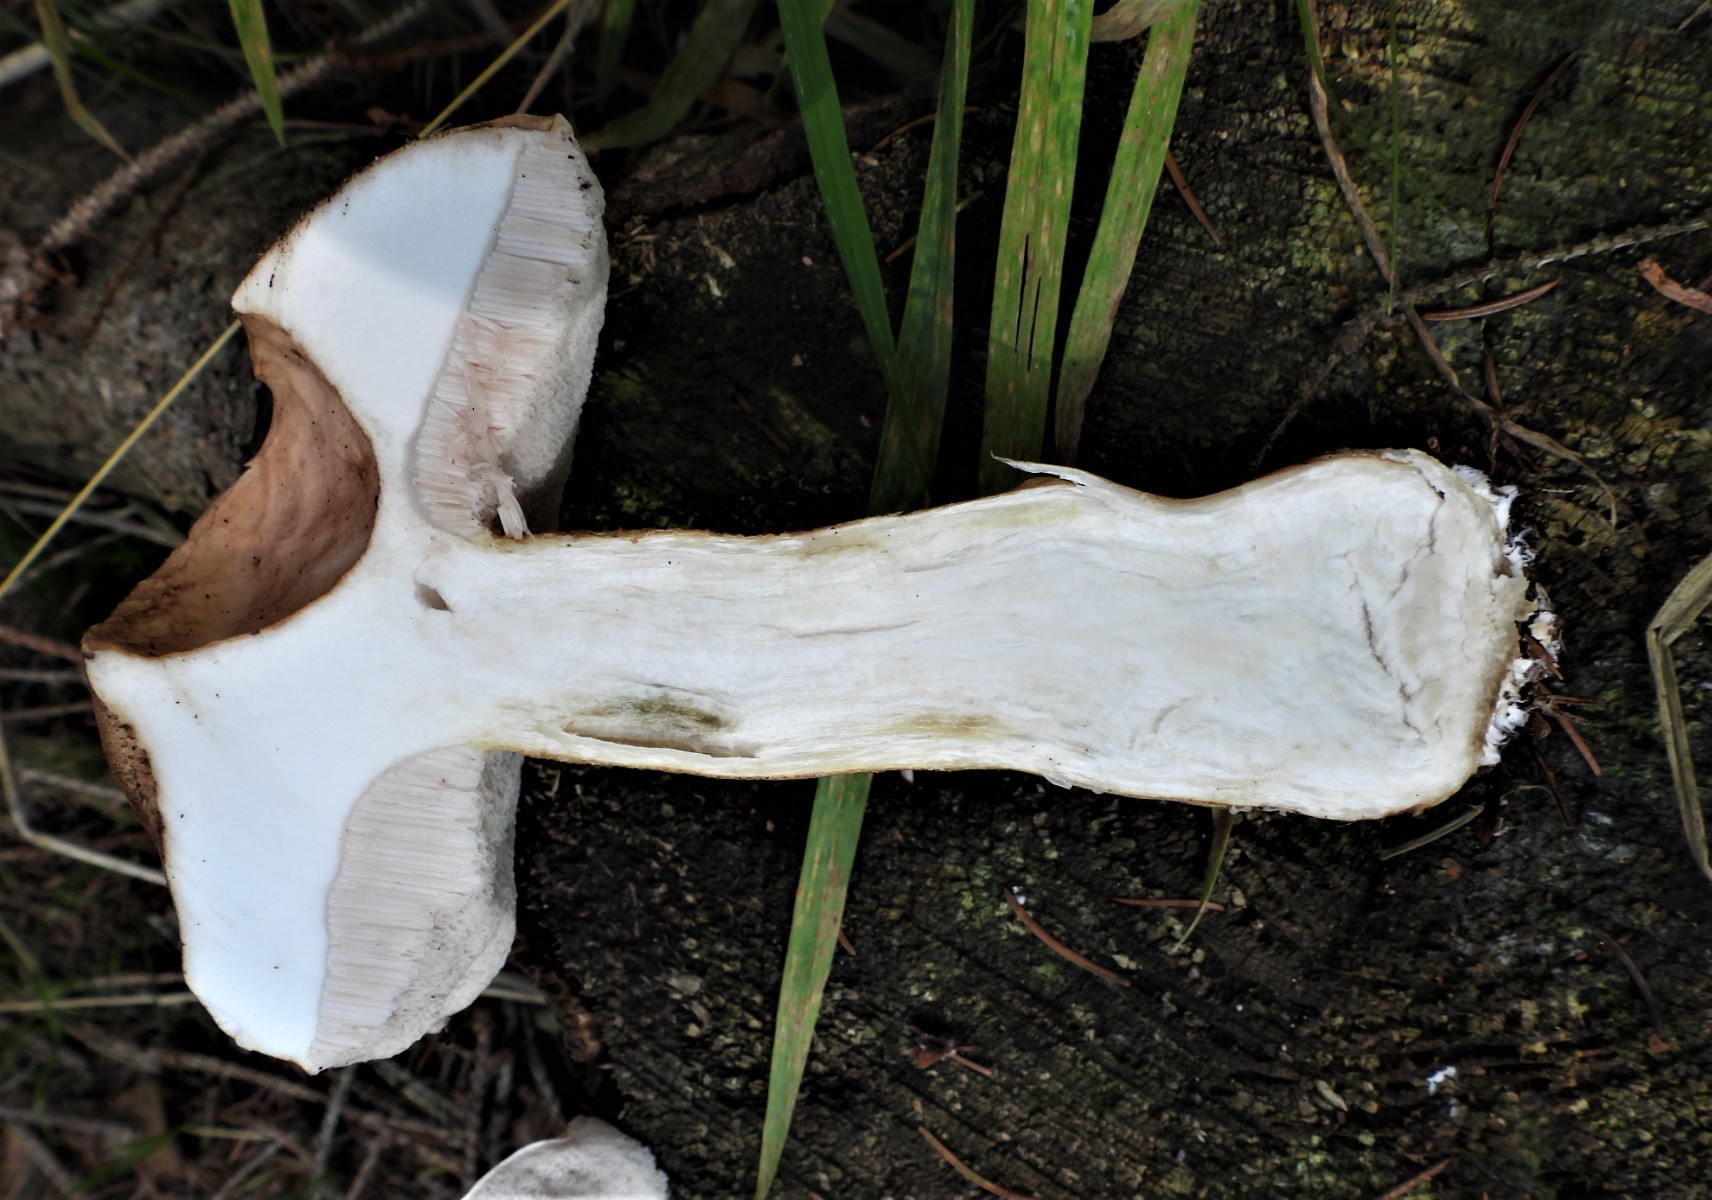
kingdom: Fungi
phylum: Basidiomycota
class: Agaricomycetes
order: Boletales
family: Boletaceae
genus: Tylopilus
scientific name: Tylopilus felleus
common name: galderørhat
